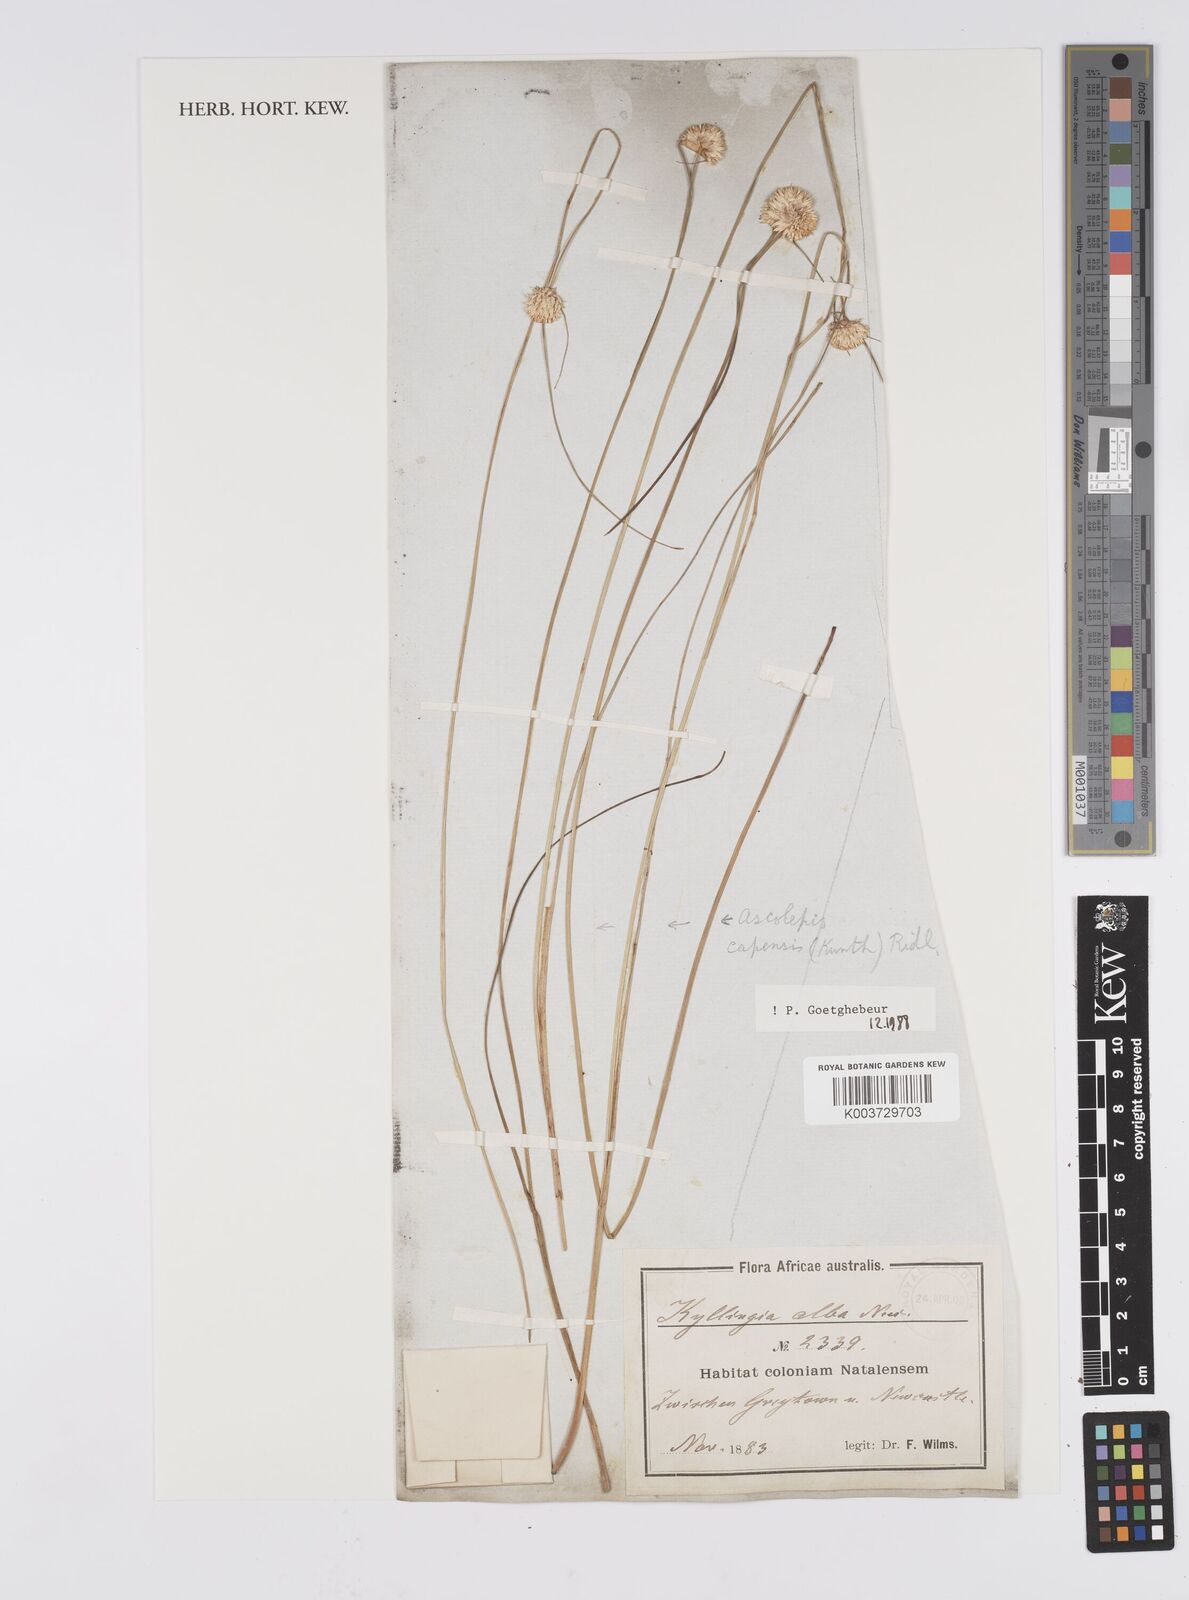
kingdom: Plantae
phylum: Tracheophyta
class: Liliopsida
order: Poales
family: Cyperaceae
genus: Cyperus
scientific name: Cyperus capensis
